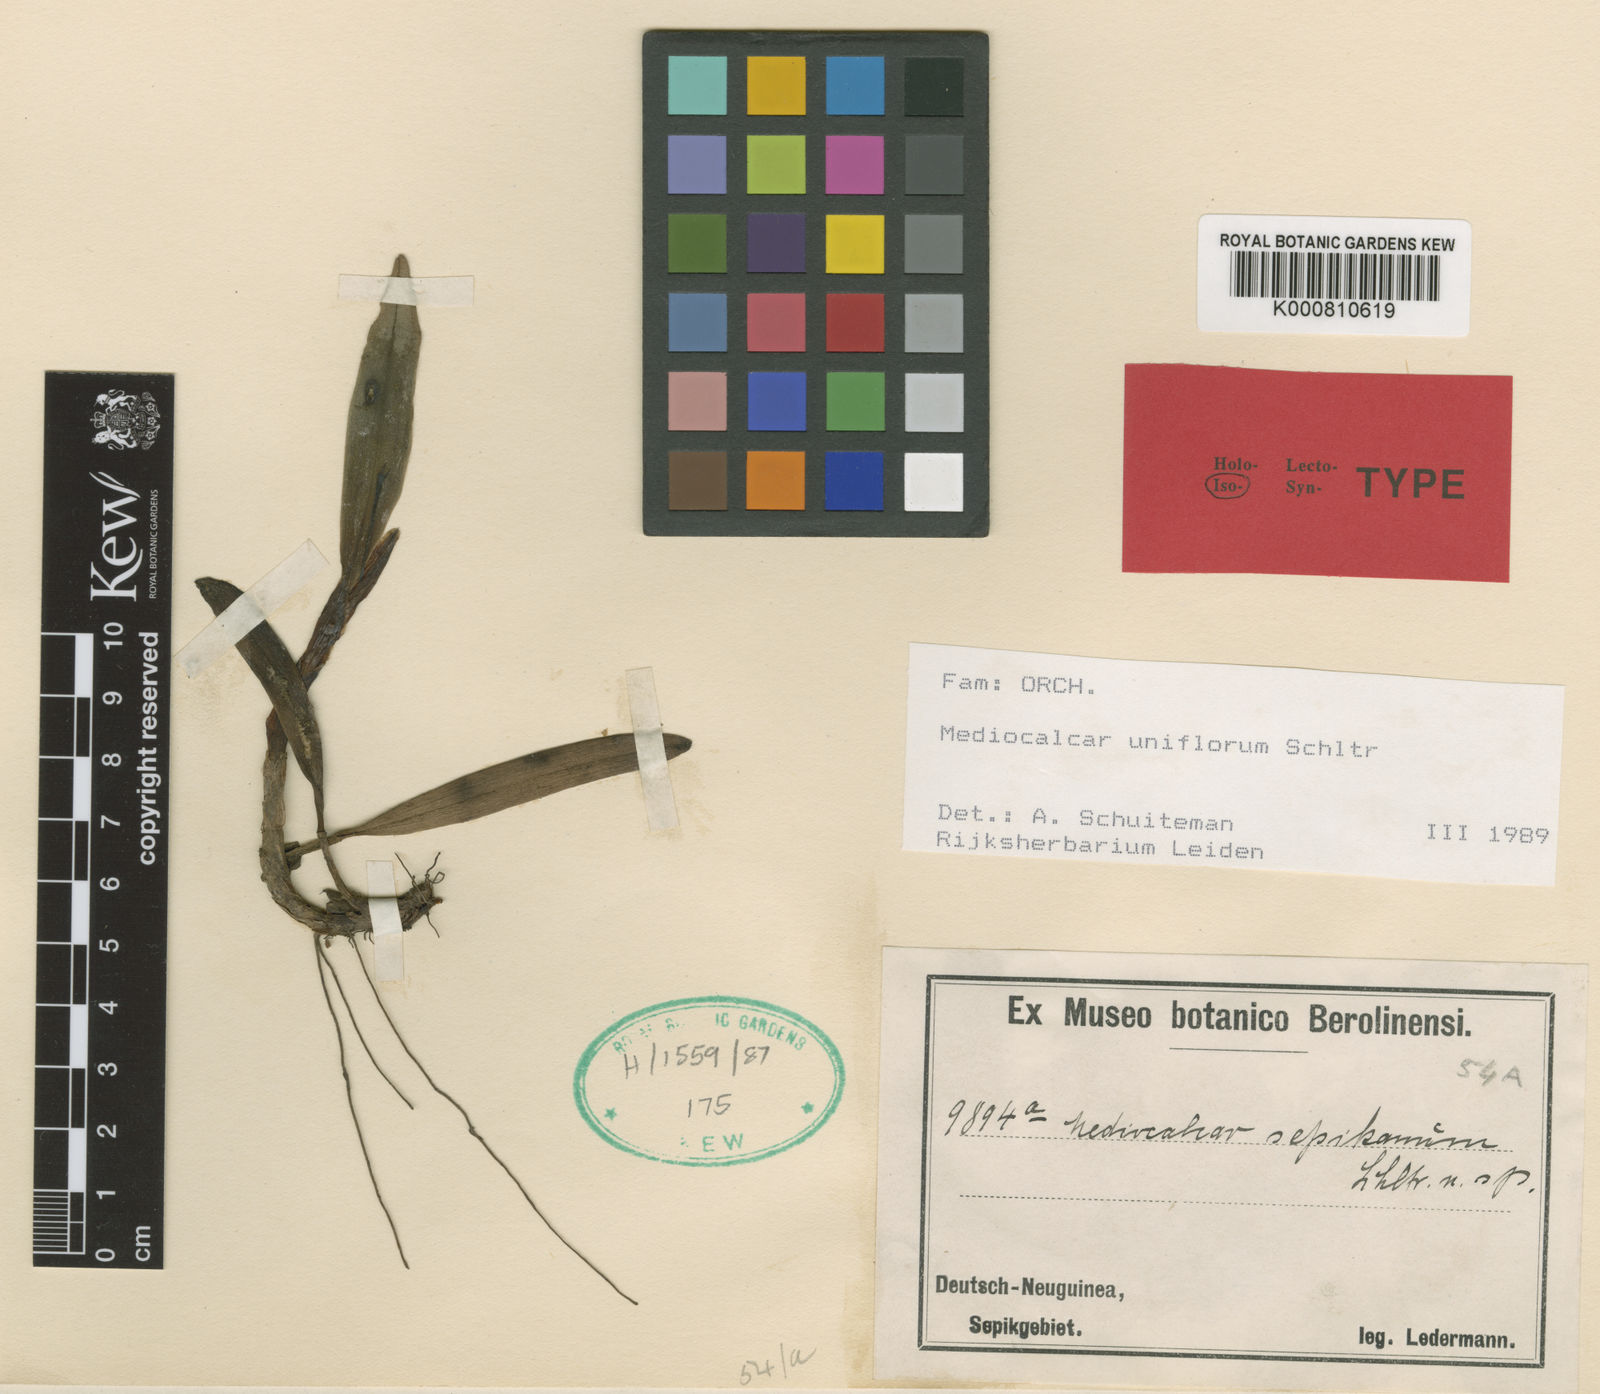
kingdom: Plantae
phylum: Tracheophyta
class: Liliopsida
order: Asparagales
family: Orchidaceae
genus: Mediocalcar
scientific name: Mediocalcar uniflorum
